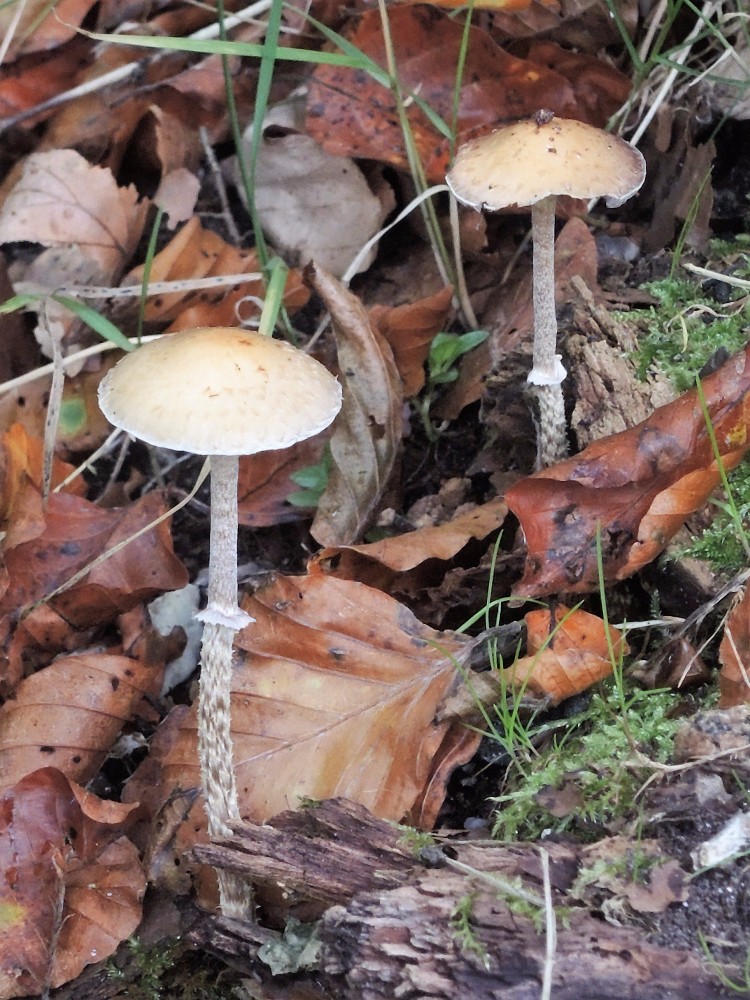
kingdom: Fungi
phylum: Basidiomycota
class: Agaricomycetes
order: Agaricales
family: Strophariaceae
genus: Leratiomyces
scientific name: Leratiomyces squamosus
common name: skællet bredblad
